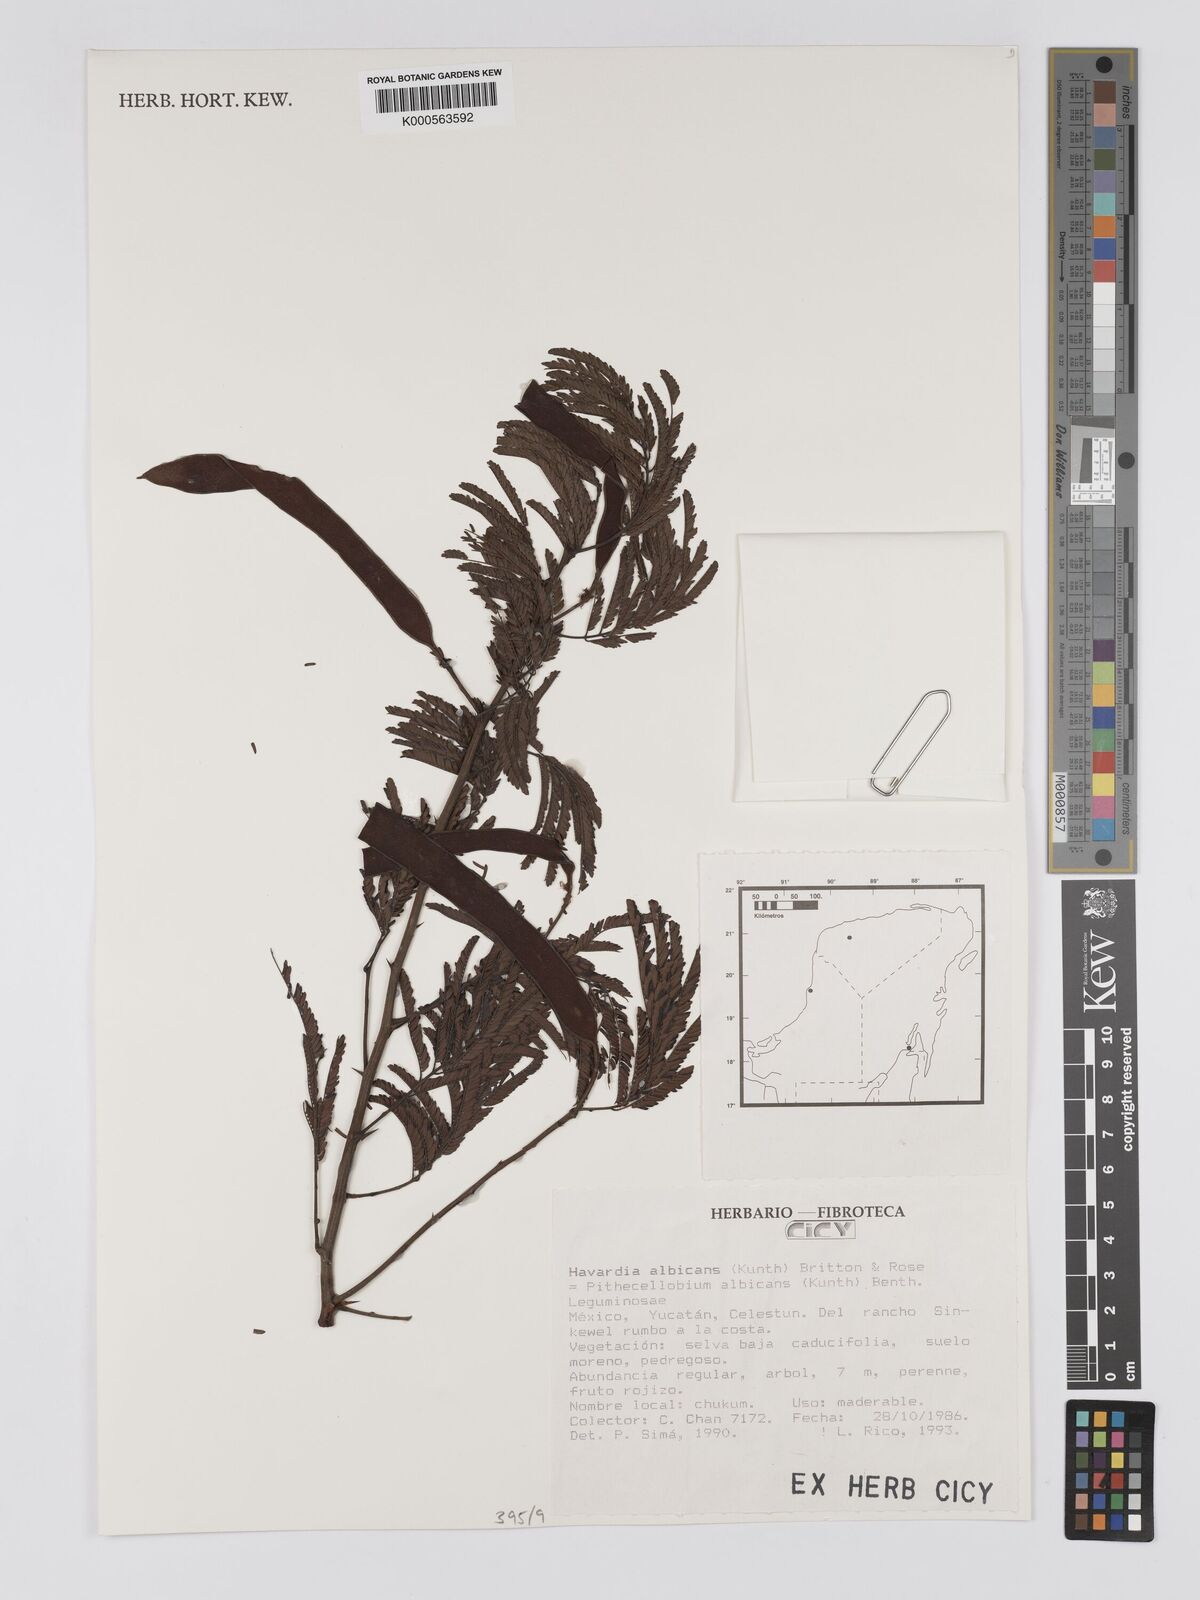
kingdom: Plantae
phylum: Tracheophyta
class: Magnoliopsida
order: Fabales
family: Fabaceae
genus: Havardia
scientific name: Havardia albicans
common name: Huisache
